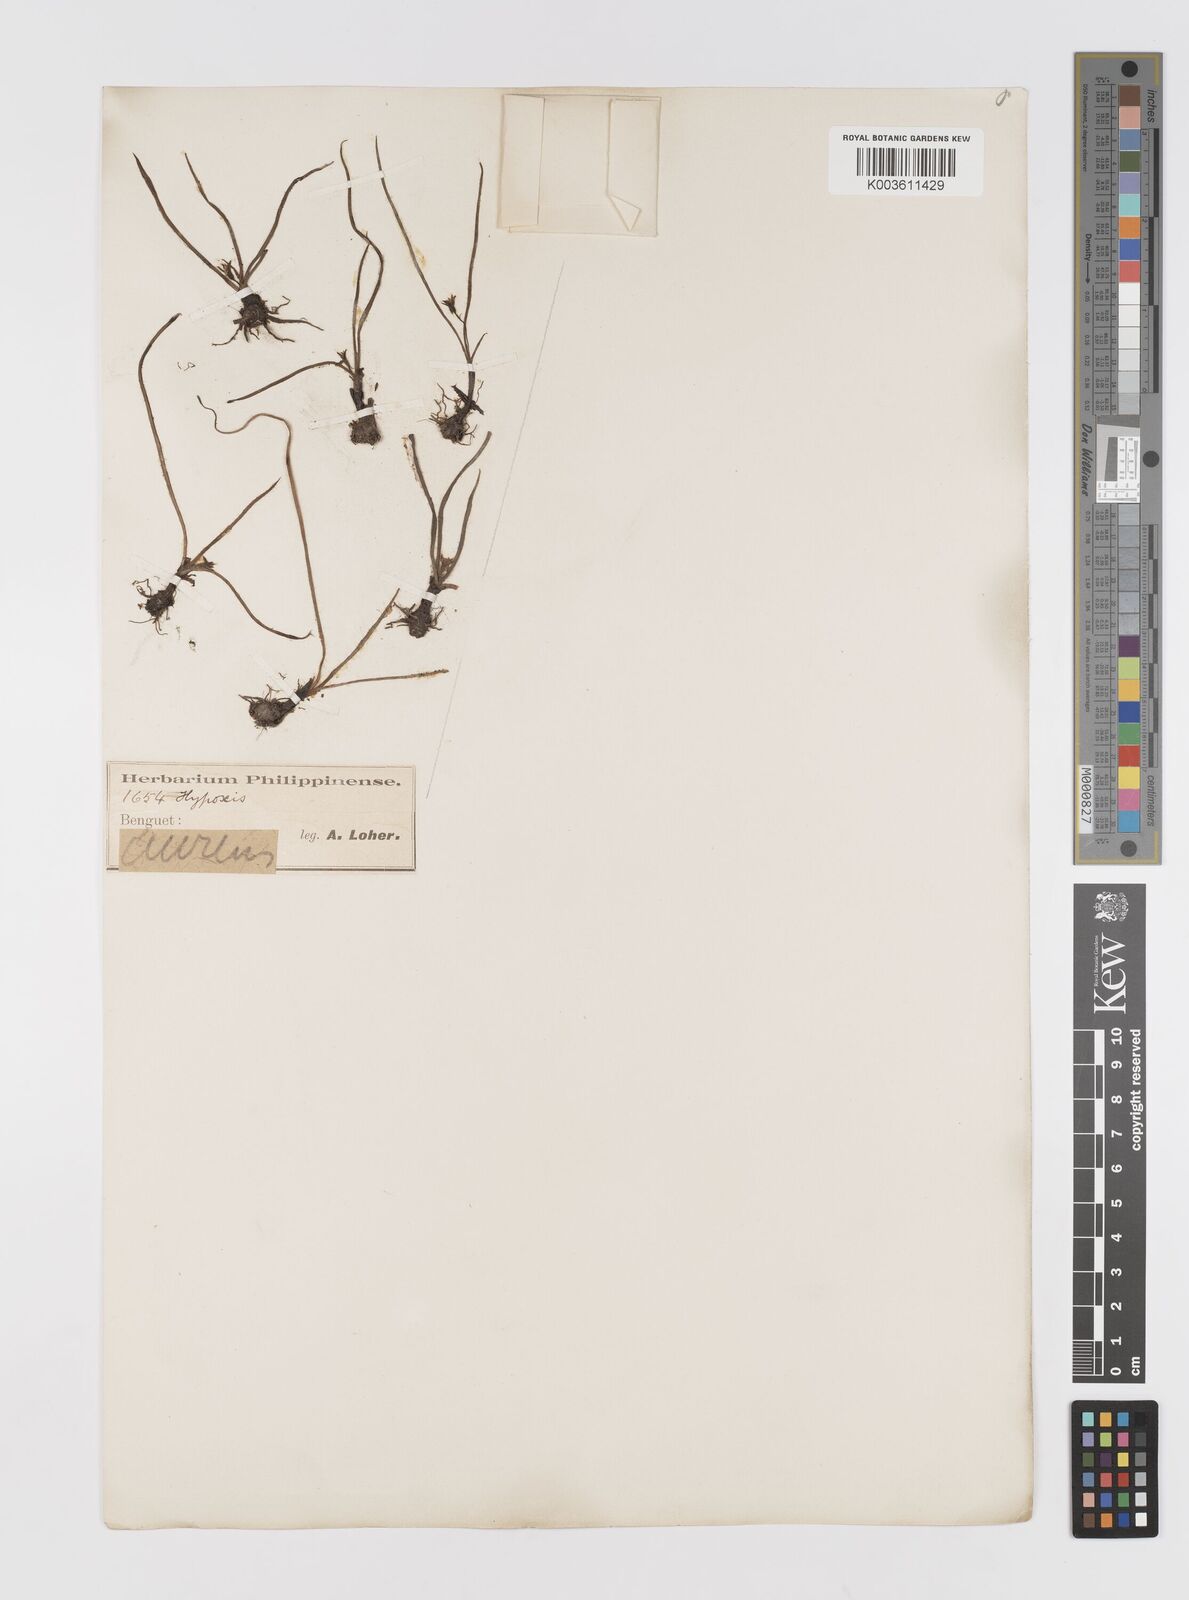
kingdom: Plantae
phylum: Tracheophyta
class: Liliopsida
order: Asparagales
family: Hypoxidaceae
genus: Hypoxis
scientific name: Hypoxis aurea
